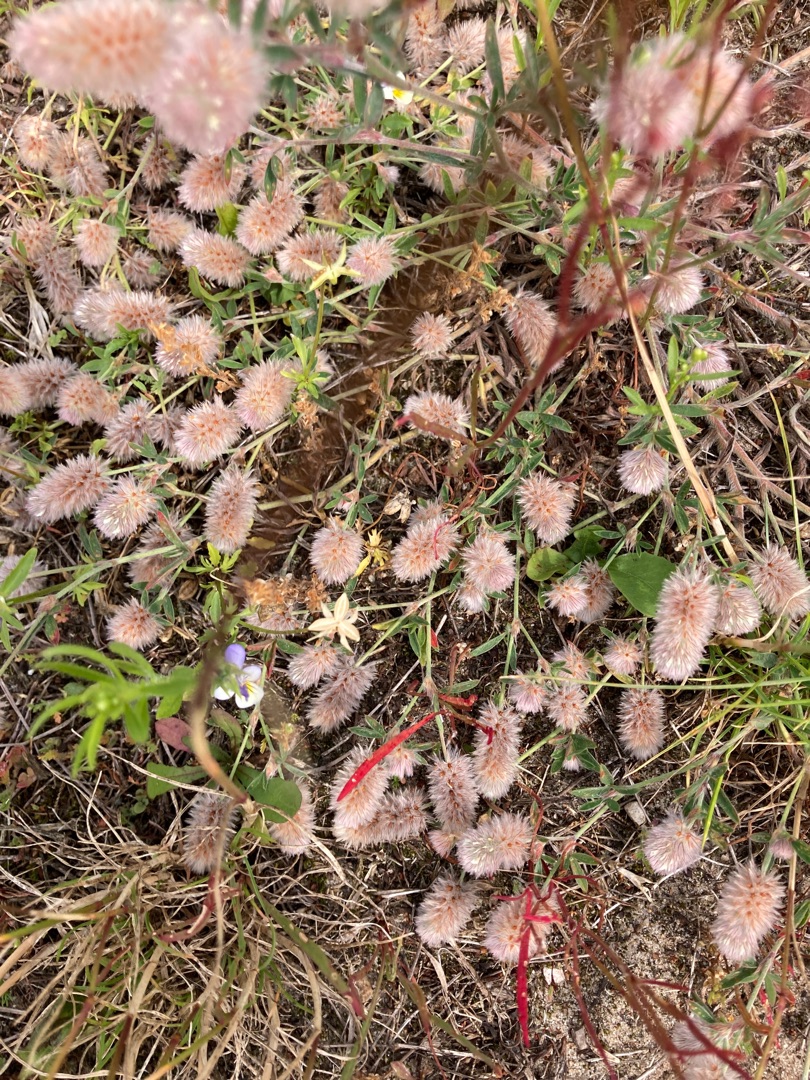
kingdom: Plantae
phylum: Tracheophyta
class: Magnoliopsida
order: Fabales
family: Fabaceae
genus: Trifolium
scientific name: Trifolium arvense
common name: Hare-kløver
